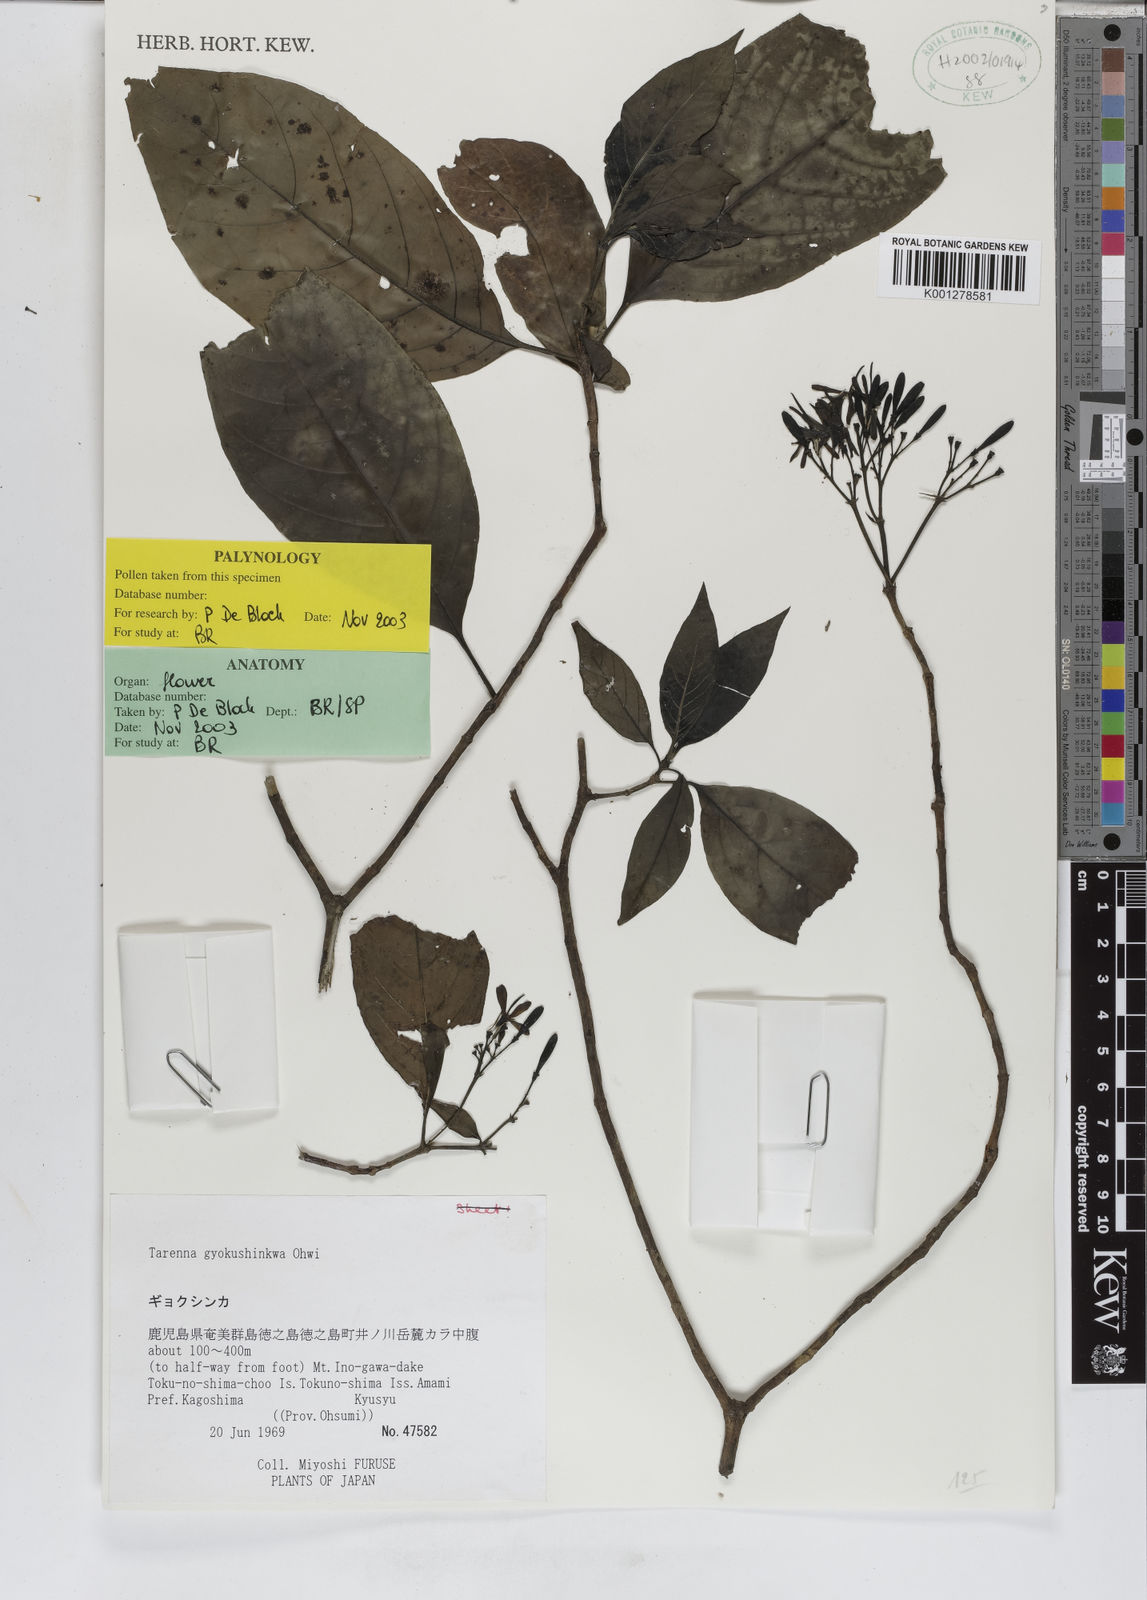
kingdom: Plantae
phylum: Tracheophyta
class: Magnoliopsida
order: Gentianales
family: Rubiaceae
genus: Tarenna
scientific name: Tarenna gracilipes
